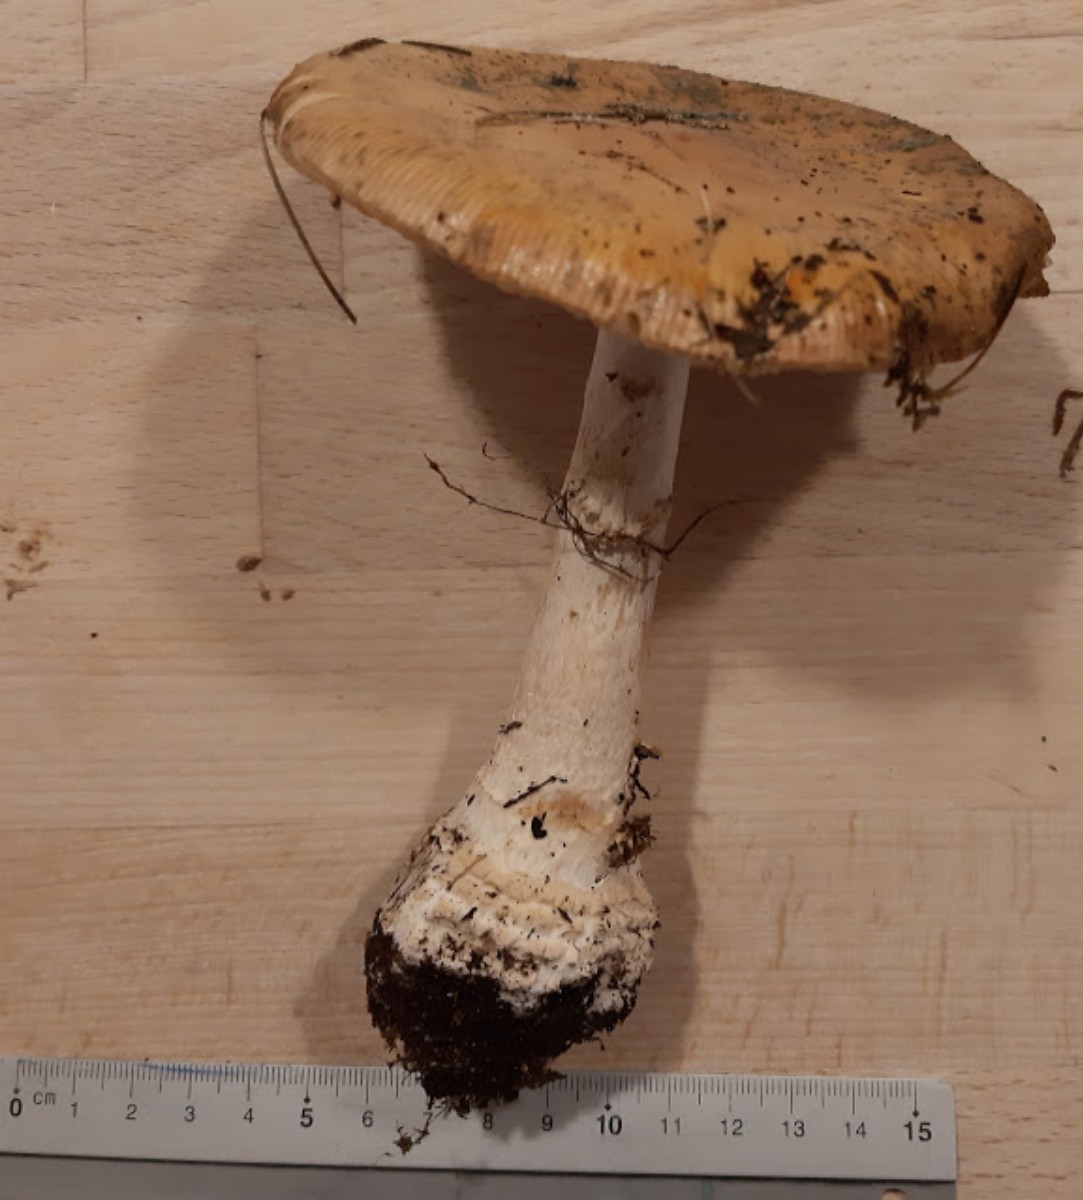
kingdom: Fungi
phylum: Basidiomycota
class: Agaricomycetes
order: Agaricales
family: Amanitaceae
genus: Amanita
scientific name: Amanita gemmata
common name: okkergul fluesvamp
